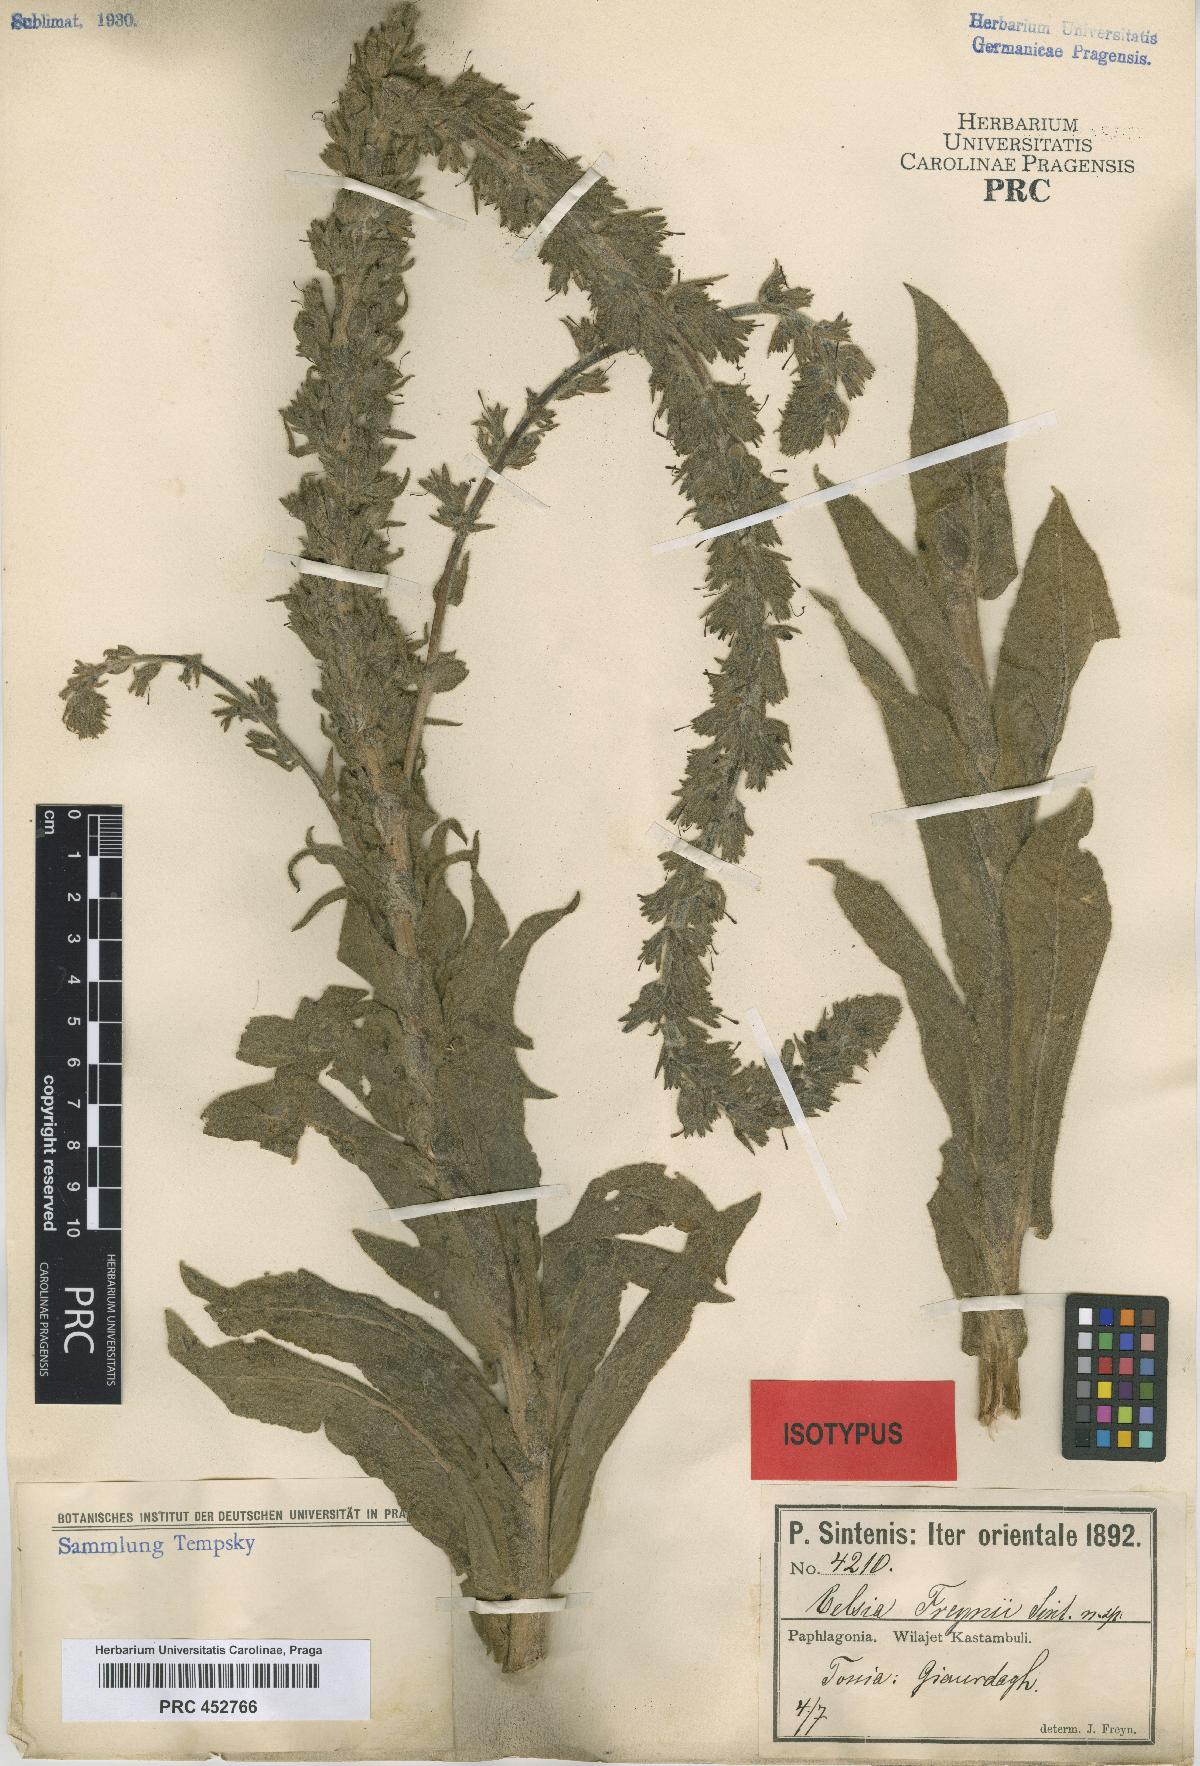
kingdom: Plantae
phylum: Tracheophyta
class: Magnoliopsida
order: Lamiales
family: Scrophulariaceae
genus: Verbascum
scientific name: Verbascum freynii
